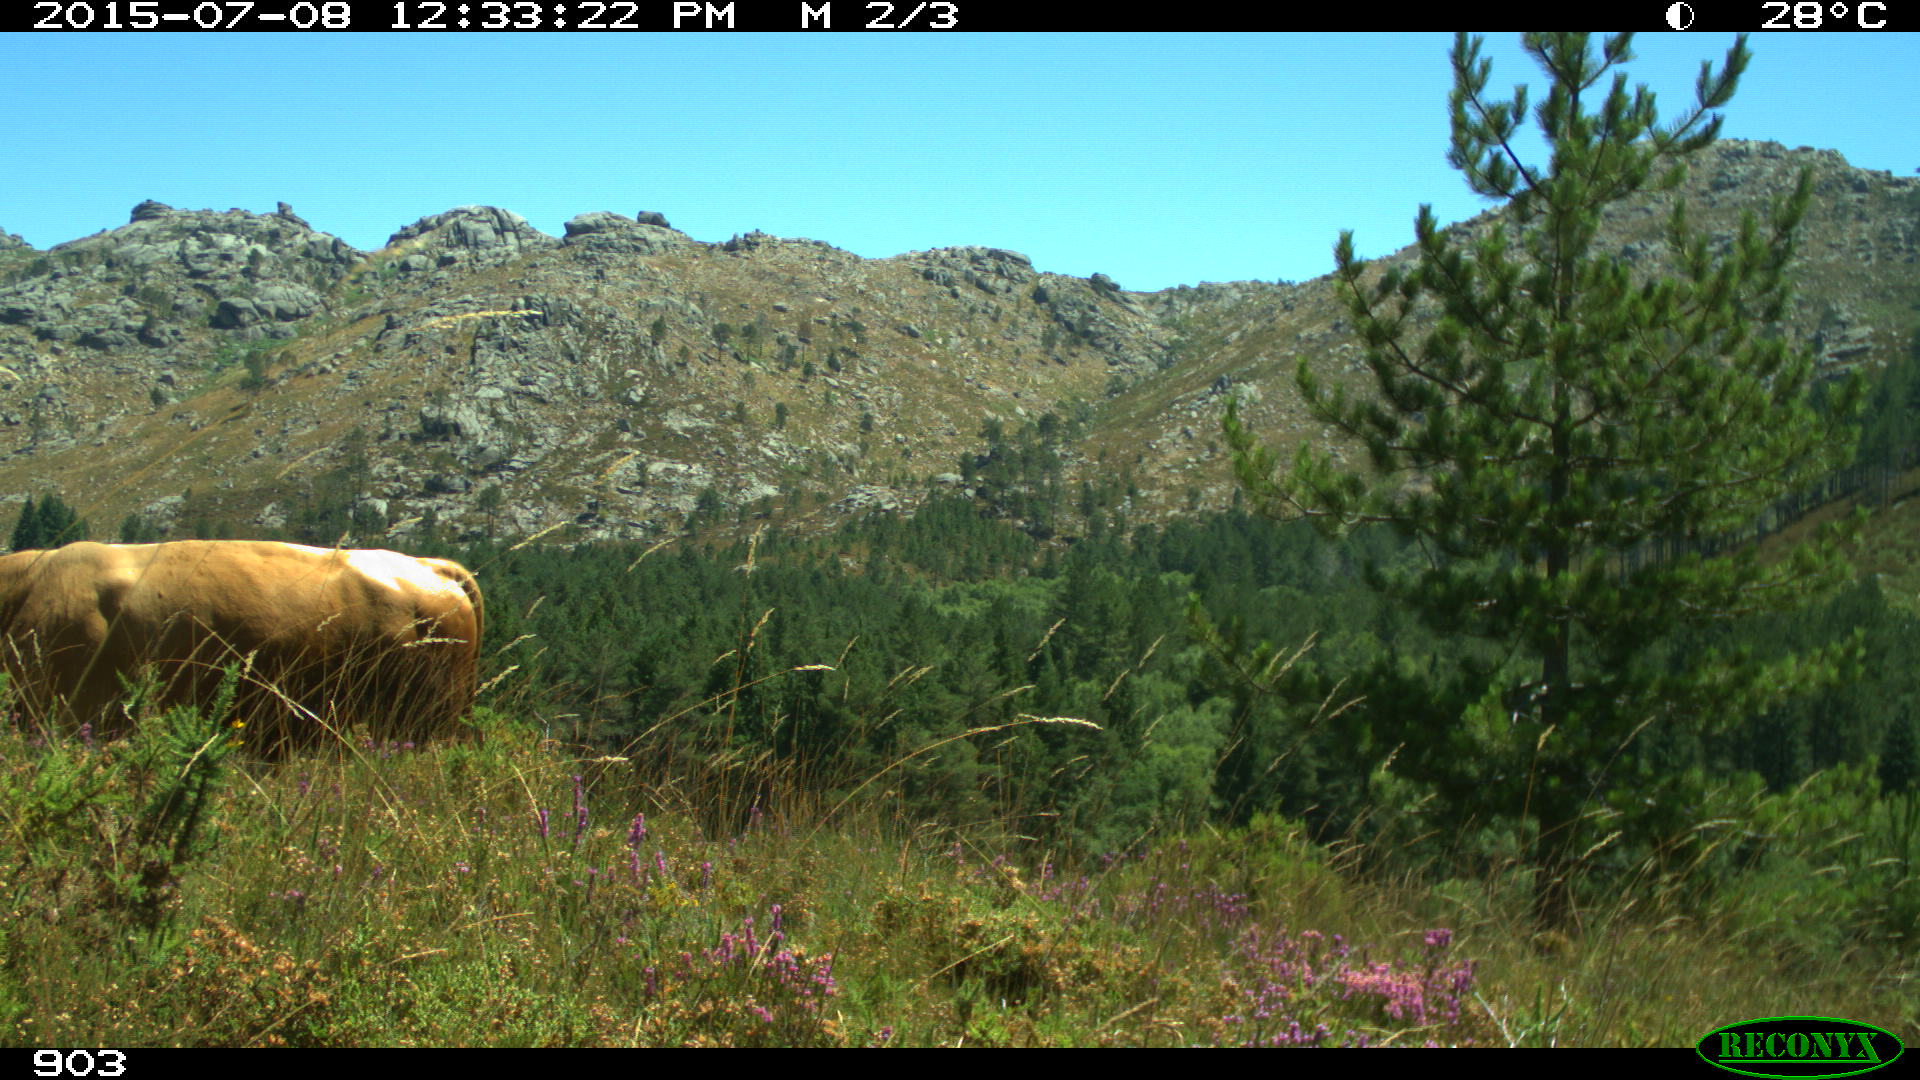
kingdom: Animalia
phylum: Chordata
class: Mammalia
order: Artiodactyla
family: Bovidae
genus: Bos
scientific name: Bos taurus
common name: Domesticated cattle
